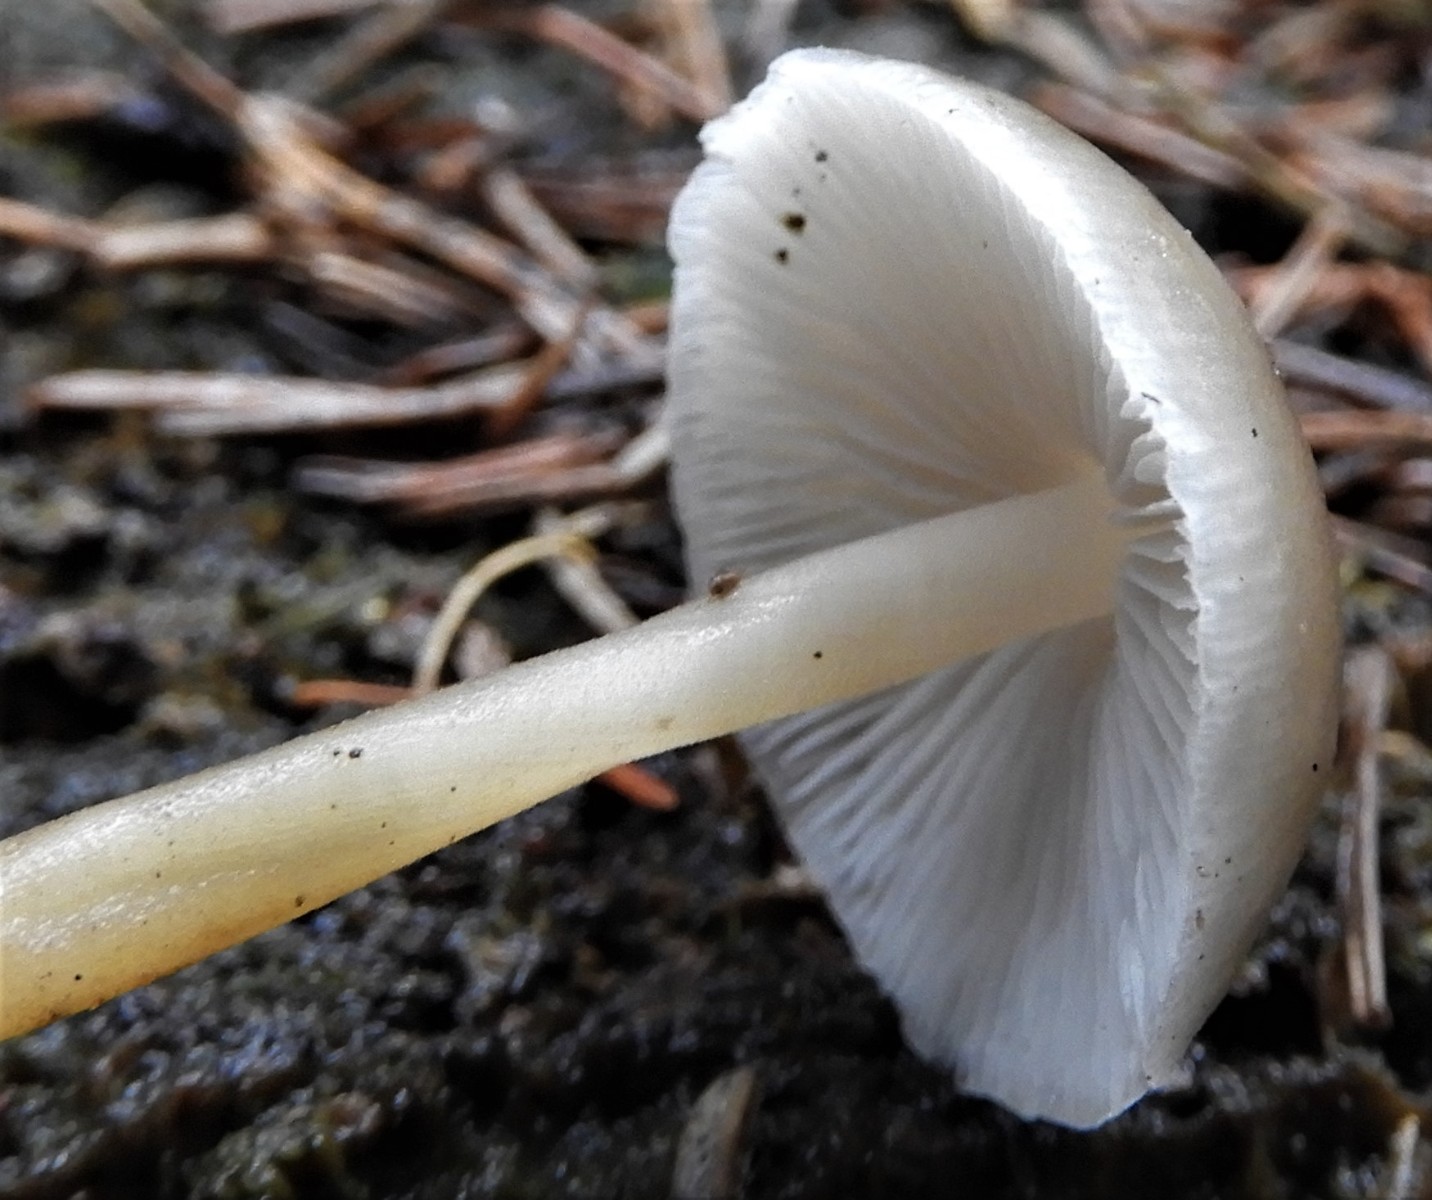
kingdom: Fungi
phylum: Basidiomycota
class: Agaricomycetes
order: Agaricales
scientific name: Agaricales
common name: champignonordenen
